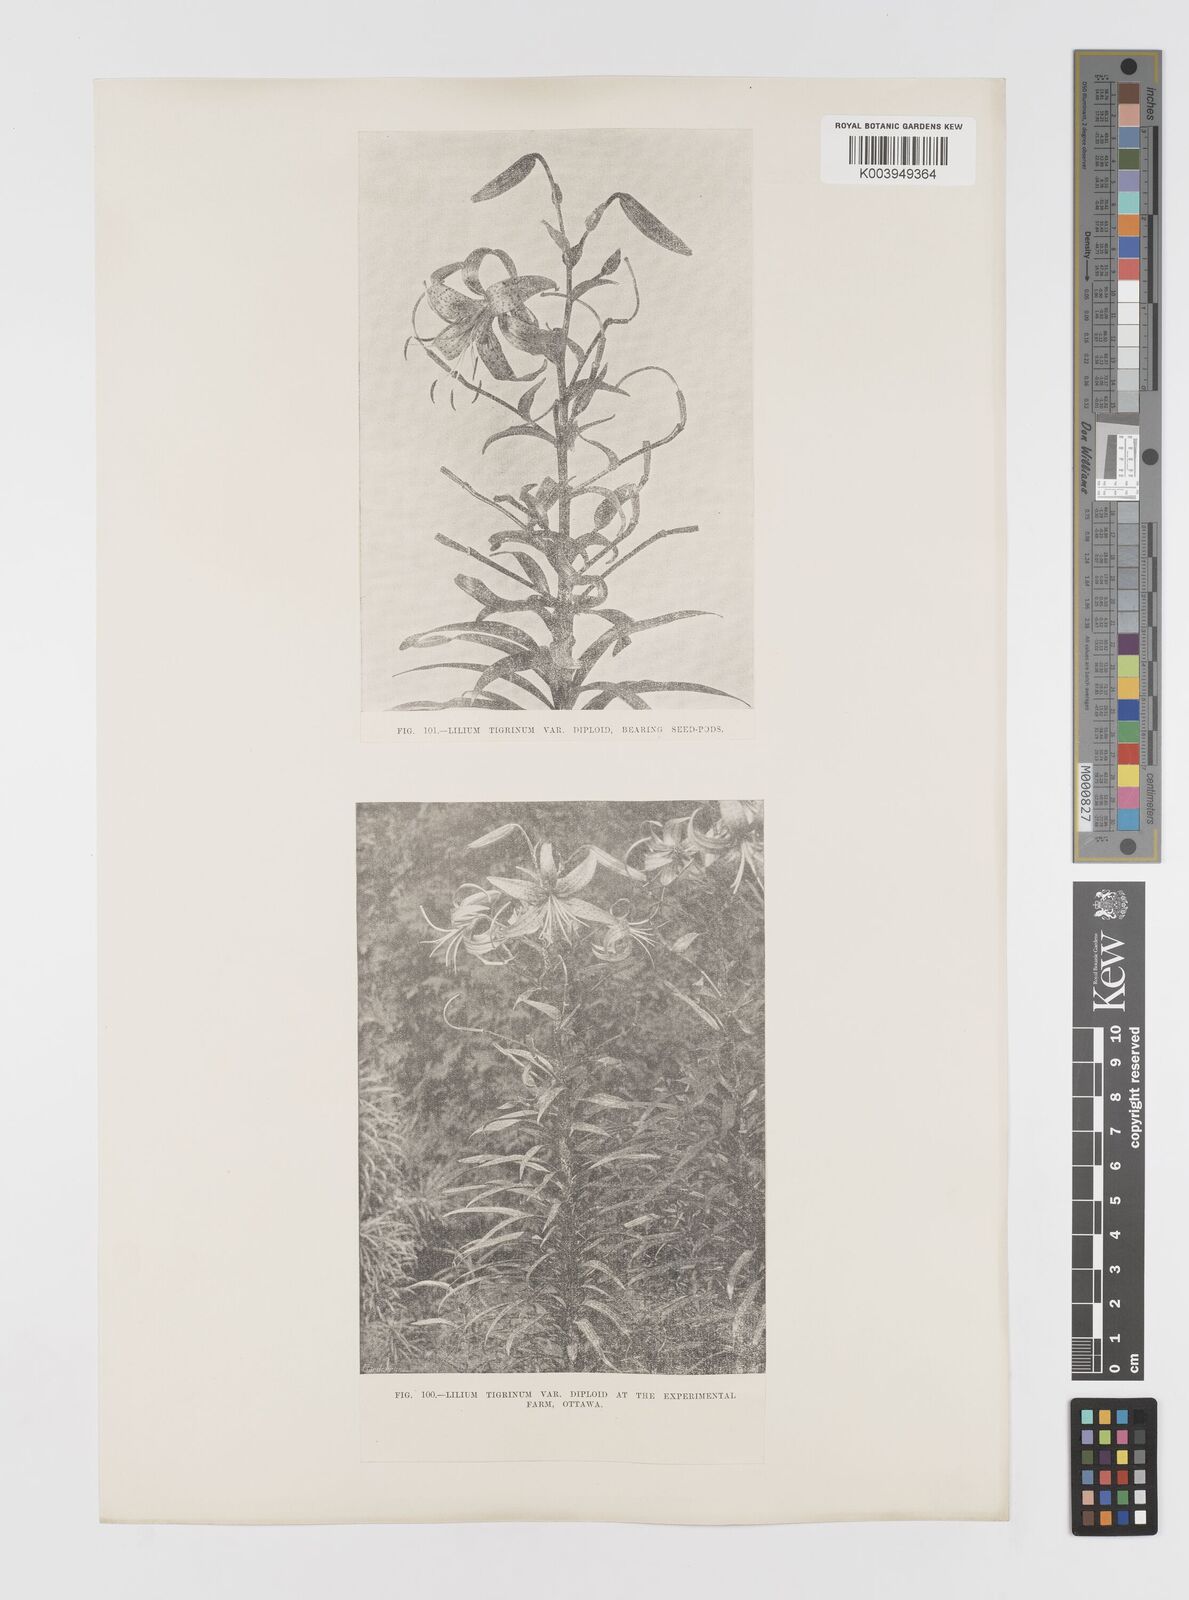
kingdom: Plantae
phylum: Tracheophyta
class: Liliopsida
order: Liliales
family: Liliaceae
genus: Lilium
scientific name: Lilium lancifolium
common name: Tiger lily
